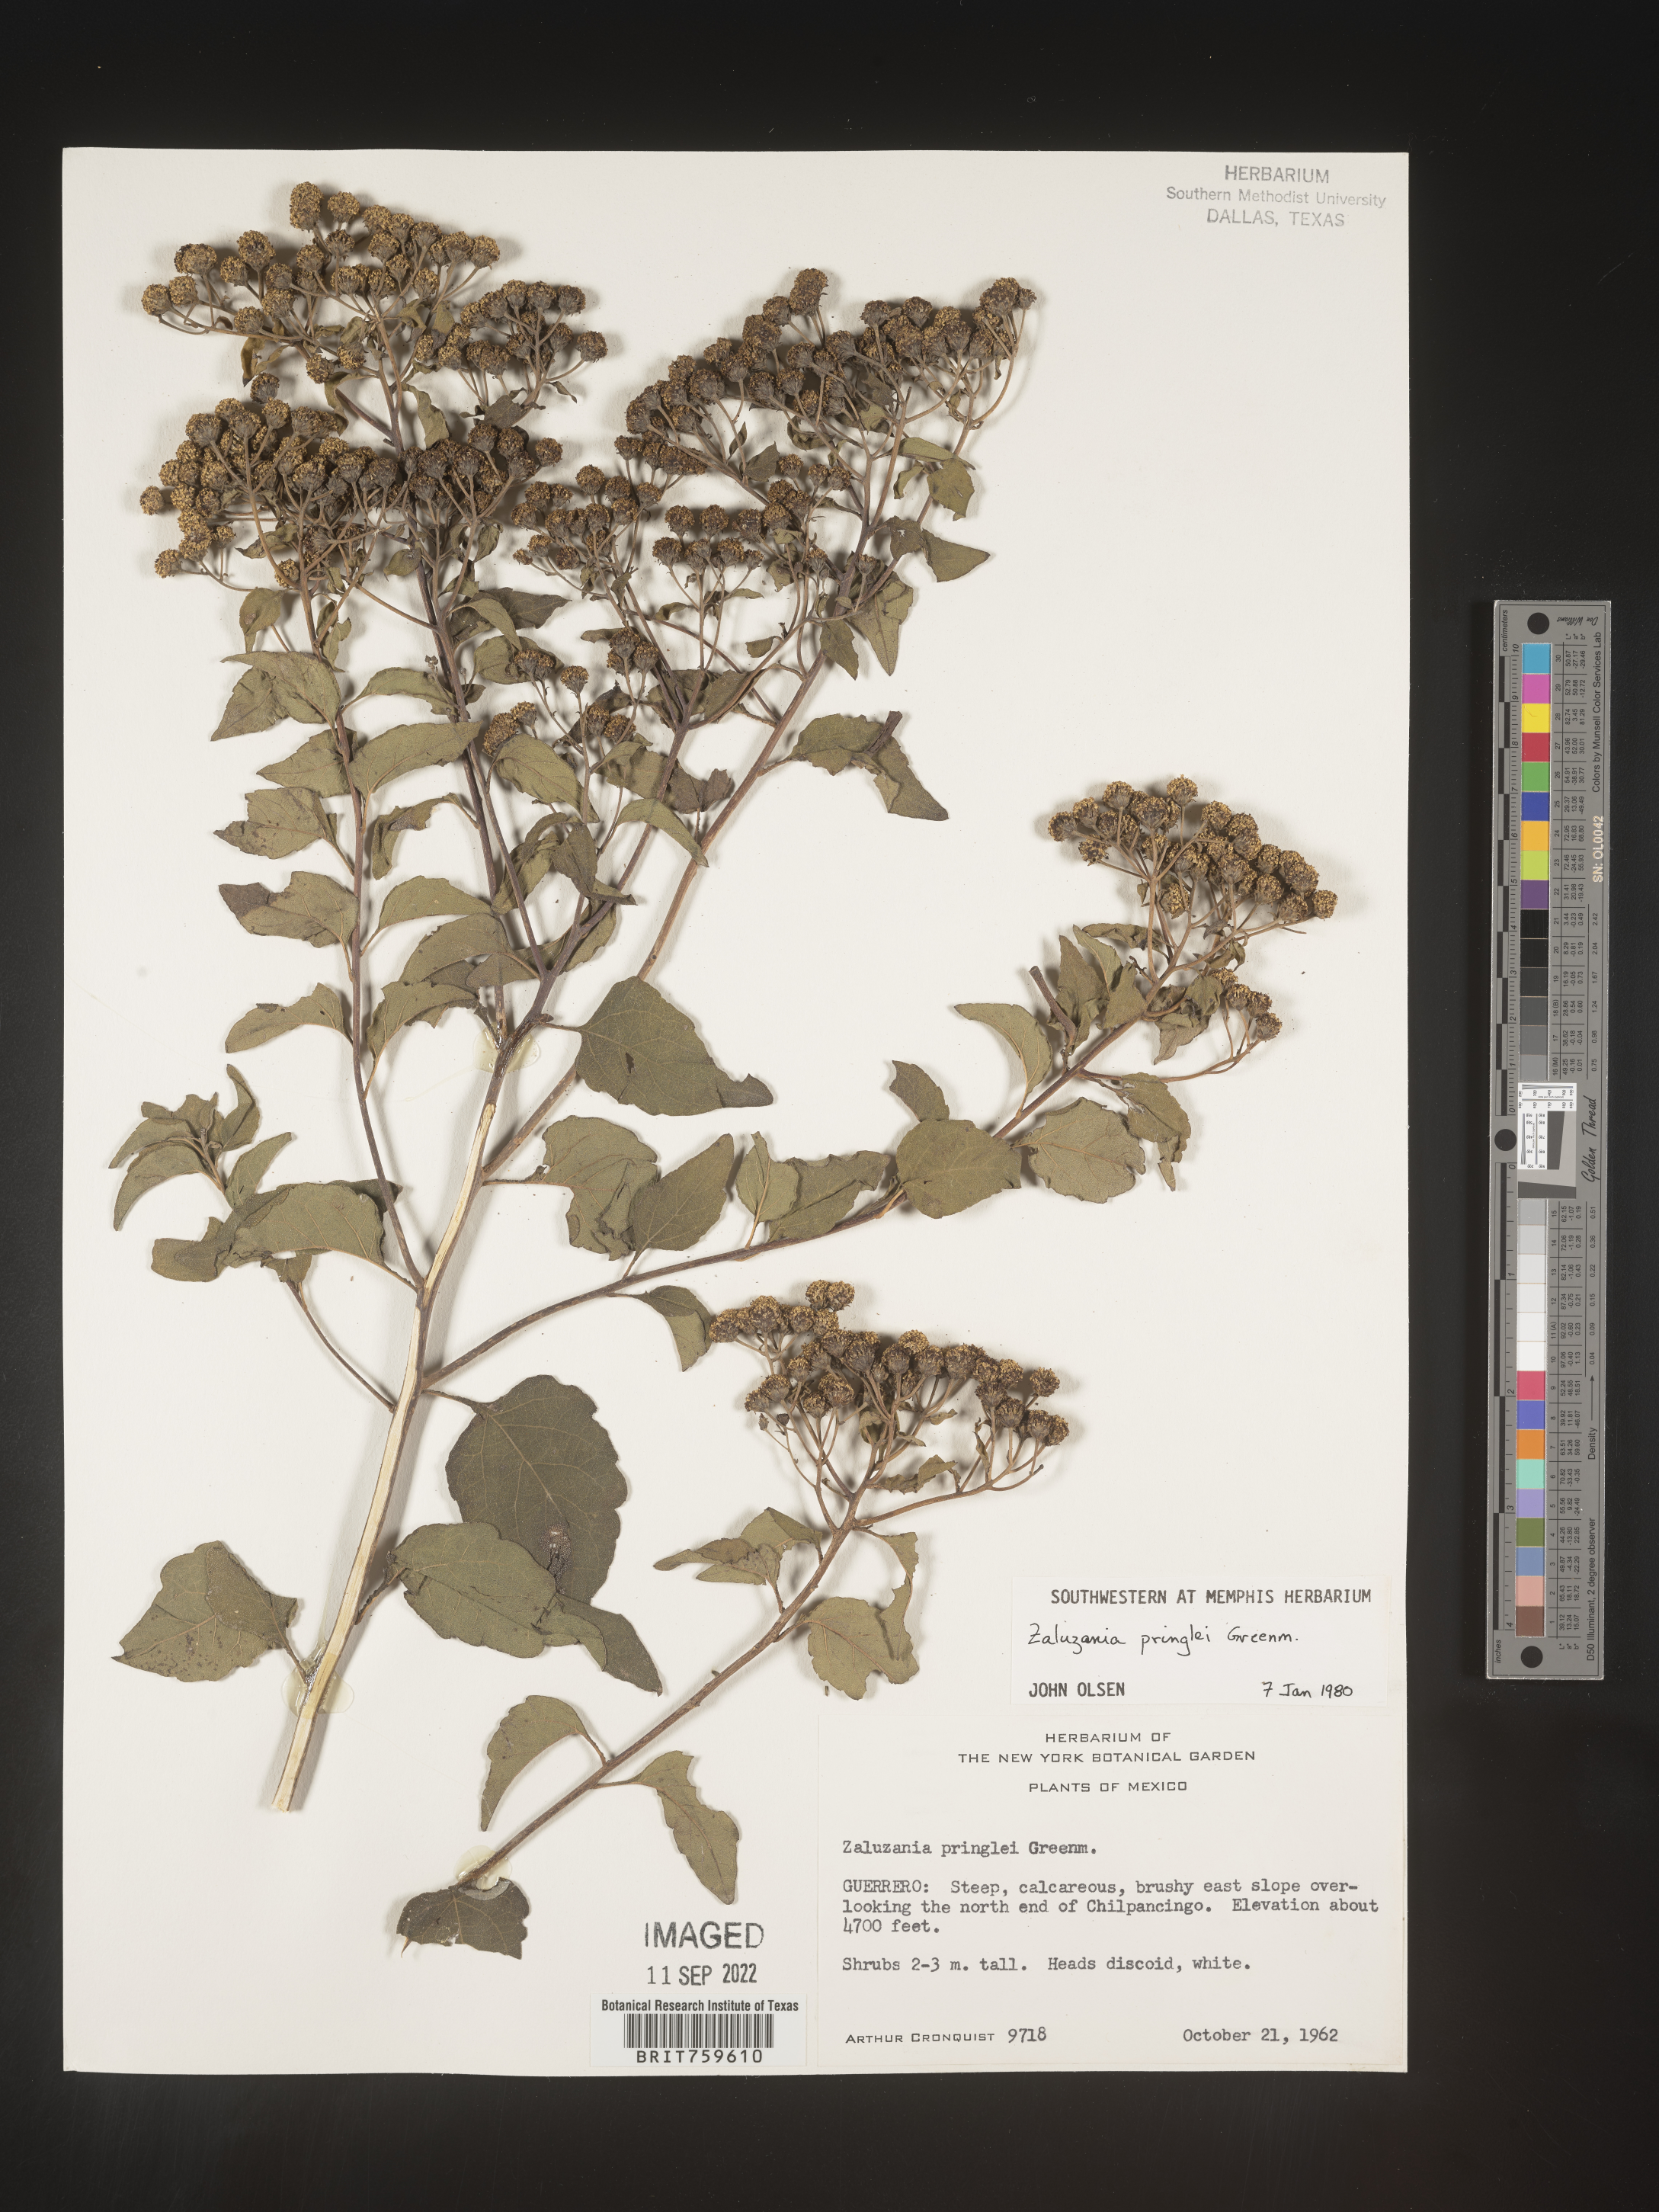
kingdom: Plantae
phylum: Tracheophyta
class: Magnoliopsida
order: Asterales
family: Asteraceae
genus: Zaluzania
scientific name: Zaluzania
